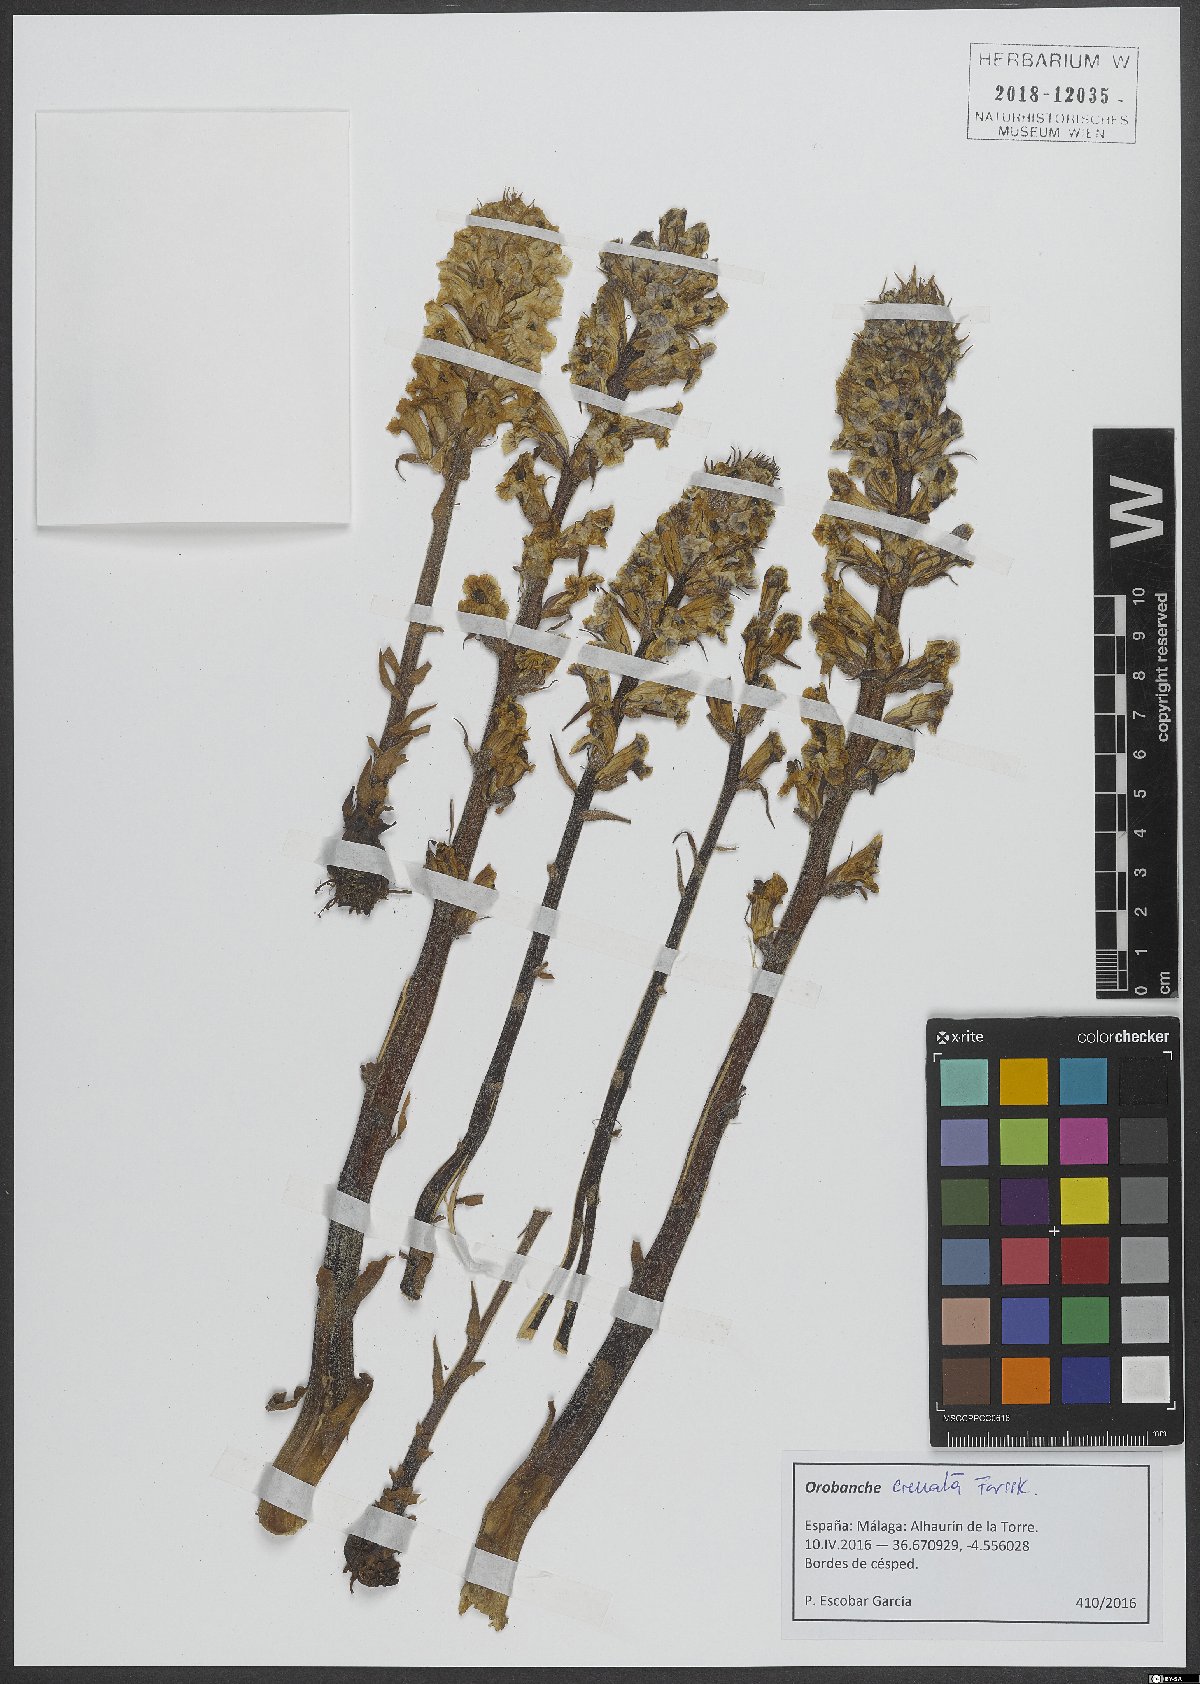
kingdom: Plantae
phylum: Tracheophyta
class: Magnoliopsida
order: Lamiales
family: Orobanchaceae
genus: Orobanche
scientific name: Orobanche crenata
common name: Bean broomrape
